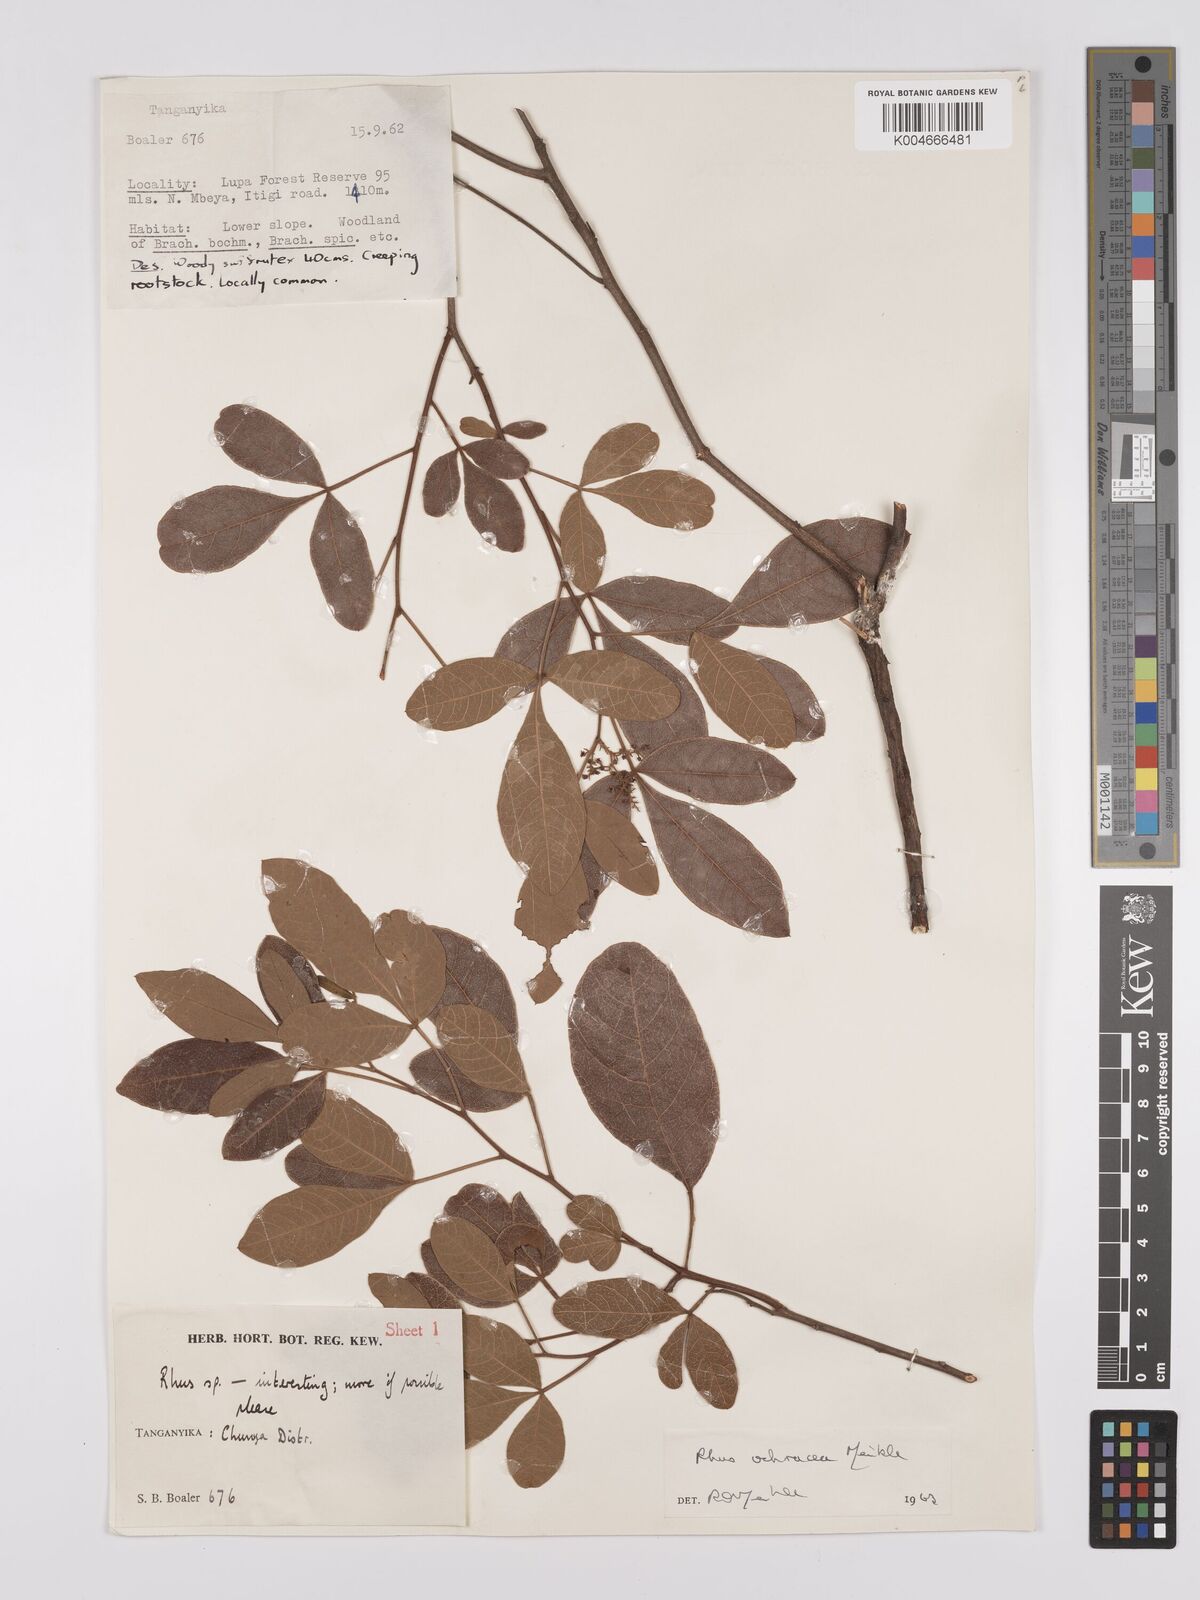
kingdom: Plantae
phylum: Tracheophyta
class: Magnoliopsida
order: Sapindales
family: Anacardiaceae
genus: Searsia
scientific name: Searsia ochracea
